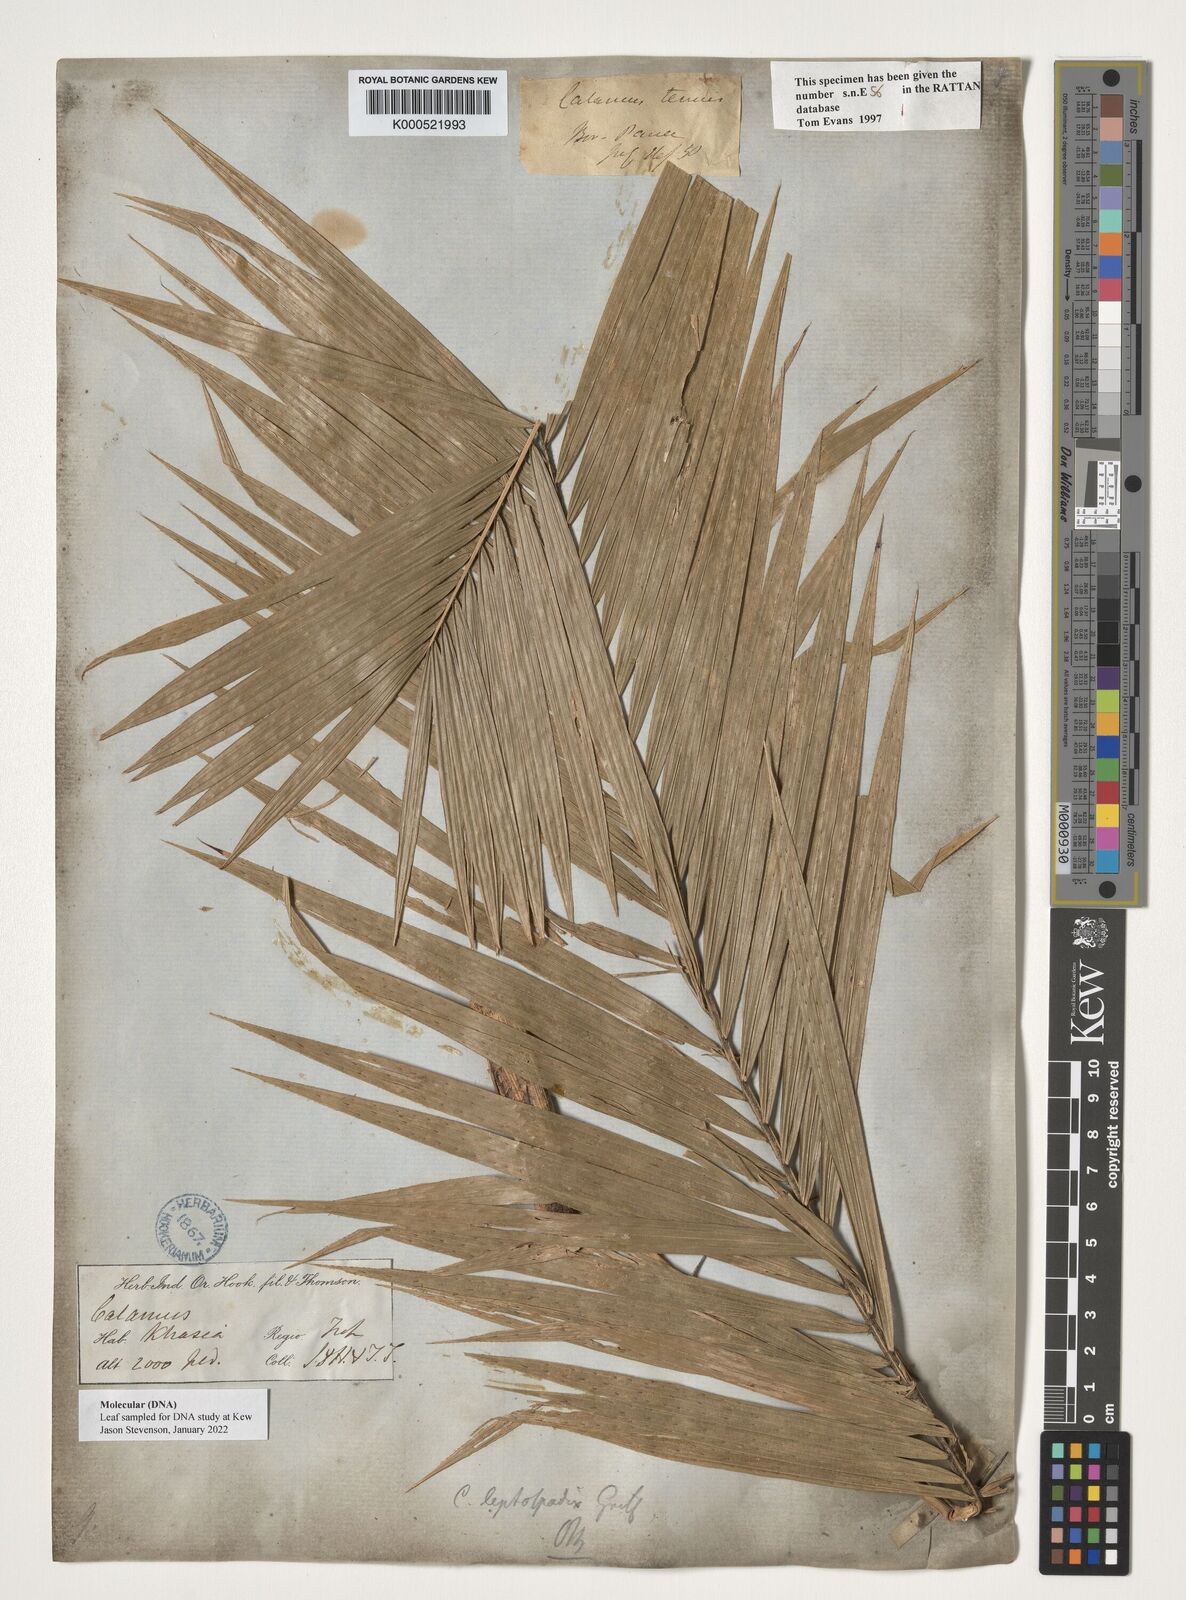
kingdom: Plantae
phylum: Tracheophyta
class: Liliopsida
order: Arecales
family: Arecaceae
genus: Calamus
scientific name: Calamus leptospadix
